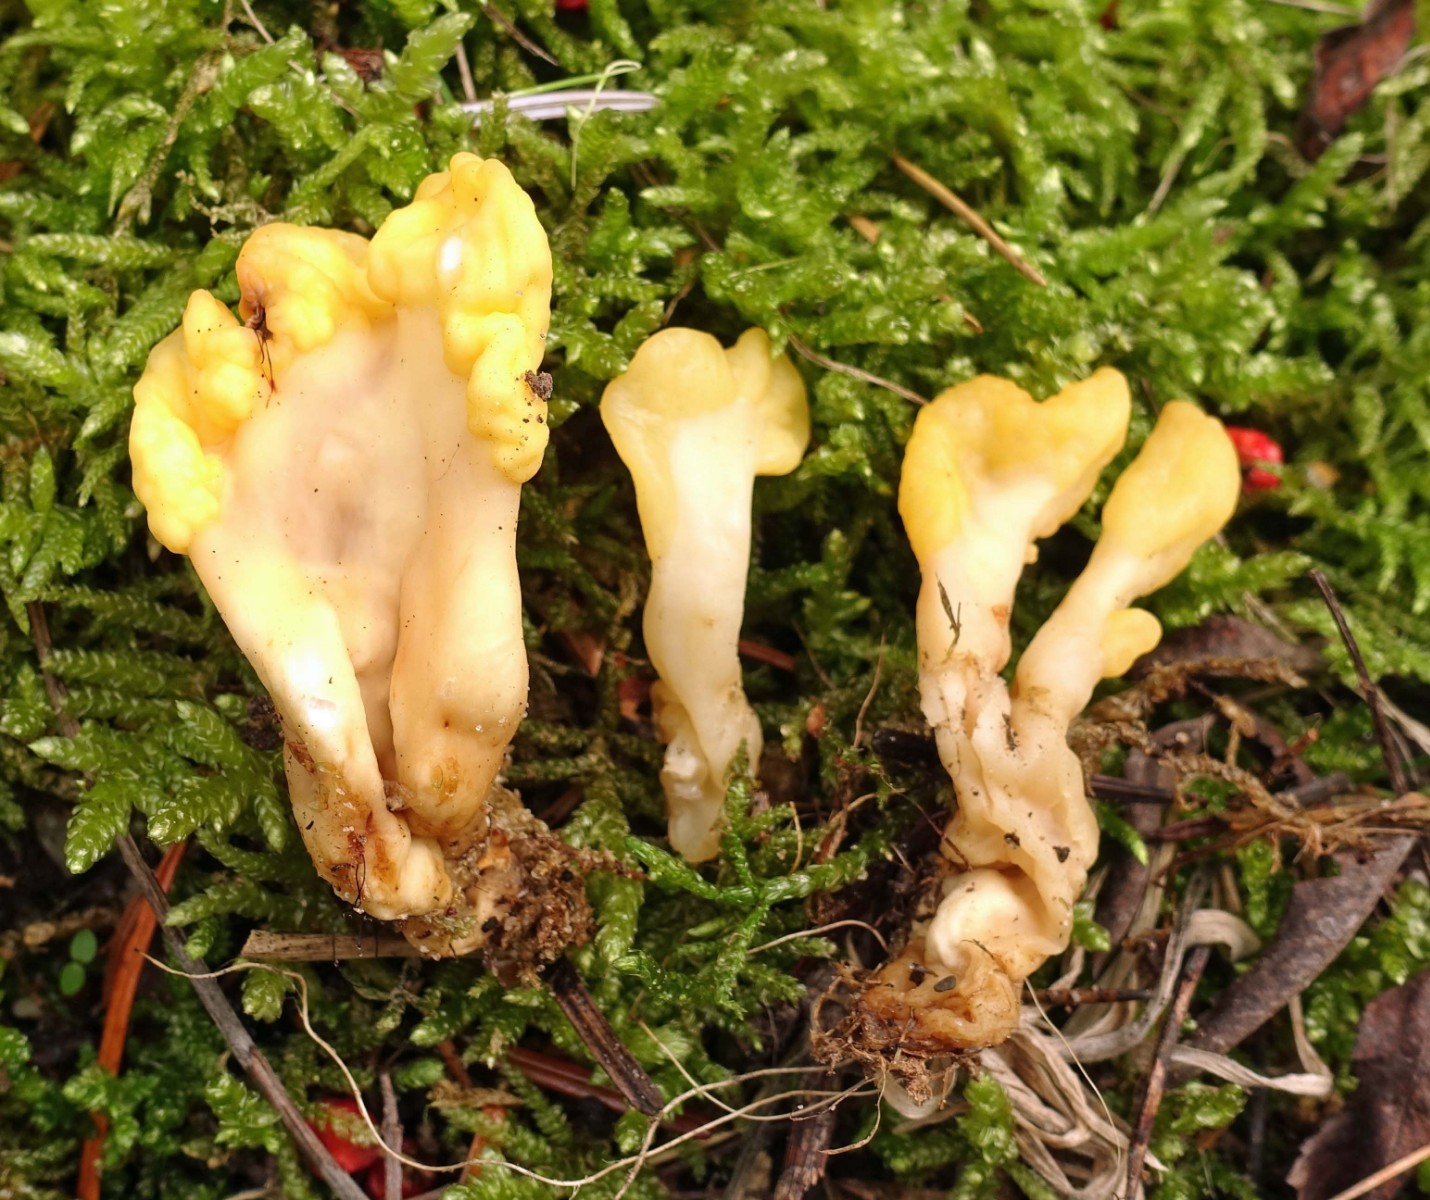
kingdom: Fungi
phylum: Ascomycota
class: Leotiomycetes
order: Rhytismatales
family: Cudoniaceae
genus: Spathularia
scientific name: Spathularia flavida
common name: gul spatelsvamp
